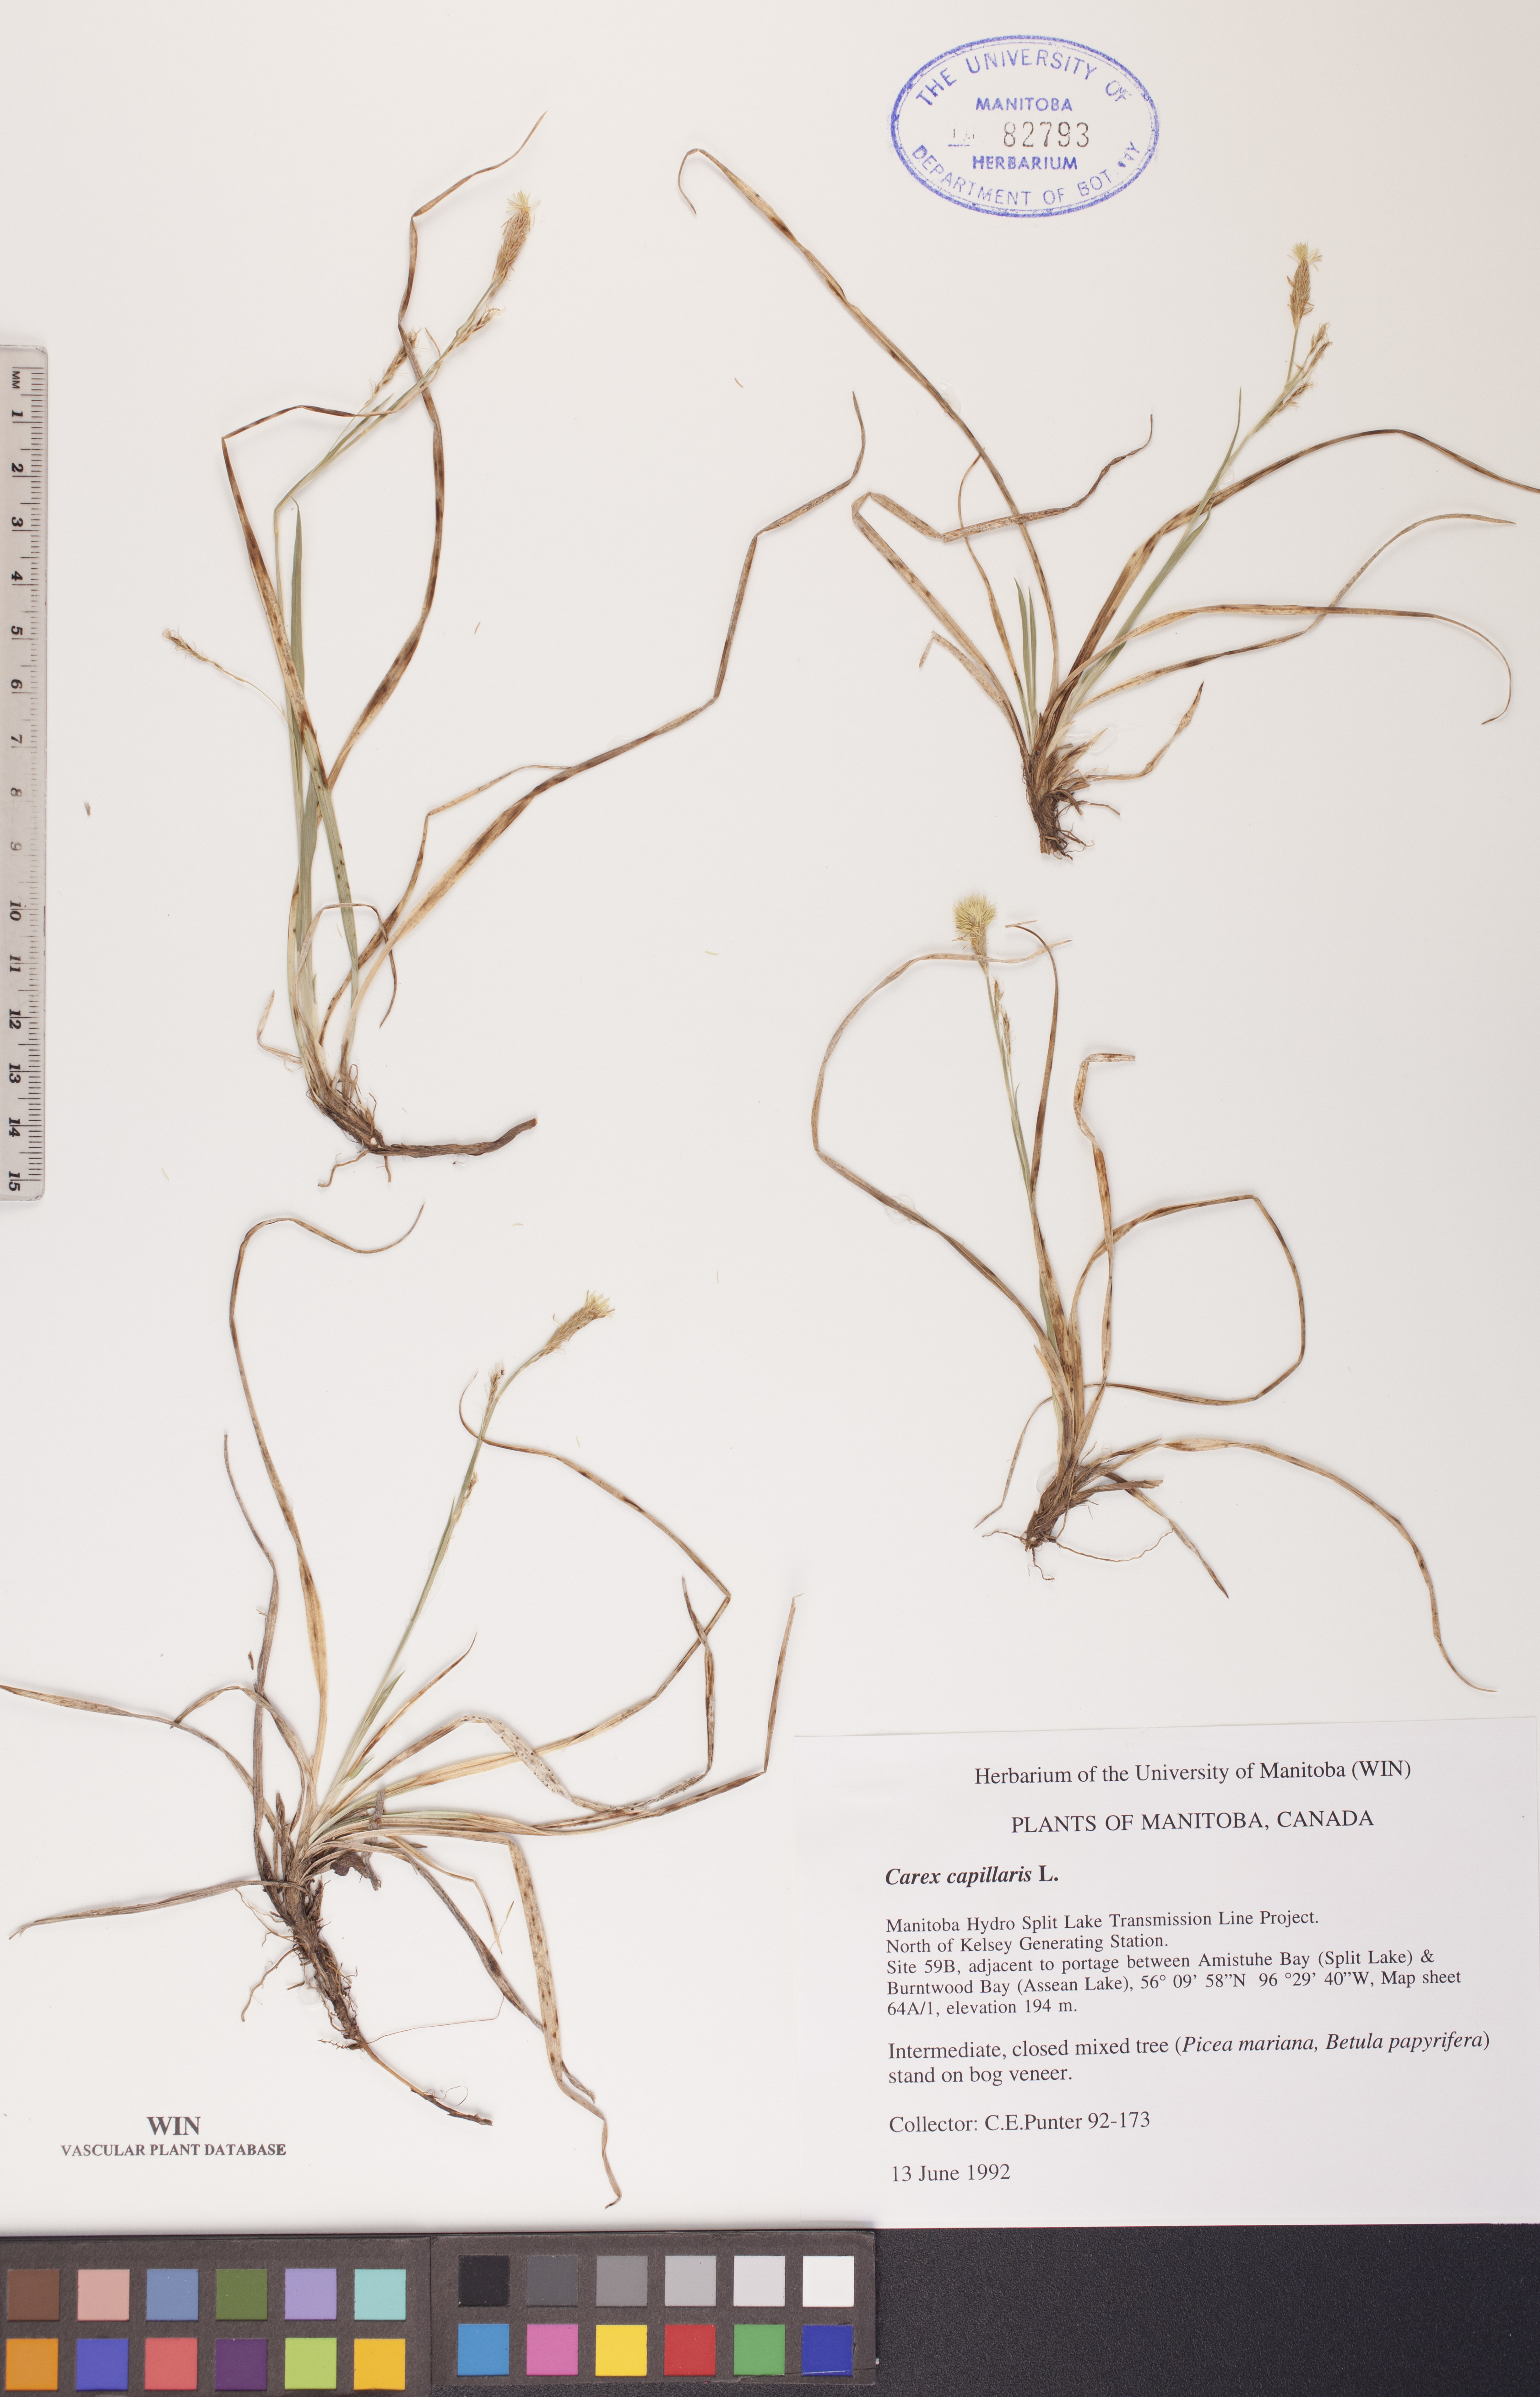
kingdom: Plantae
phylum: Tracheophyta
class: Liliopsida
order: Poales
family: Cyperaceae
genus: Carex
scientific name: Carex capillaris
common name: Hair sedge
